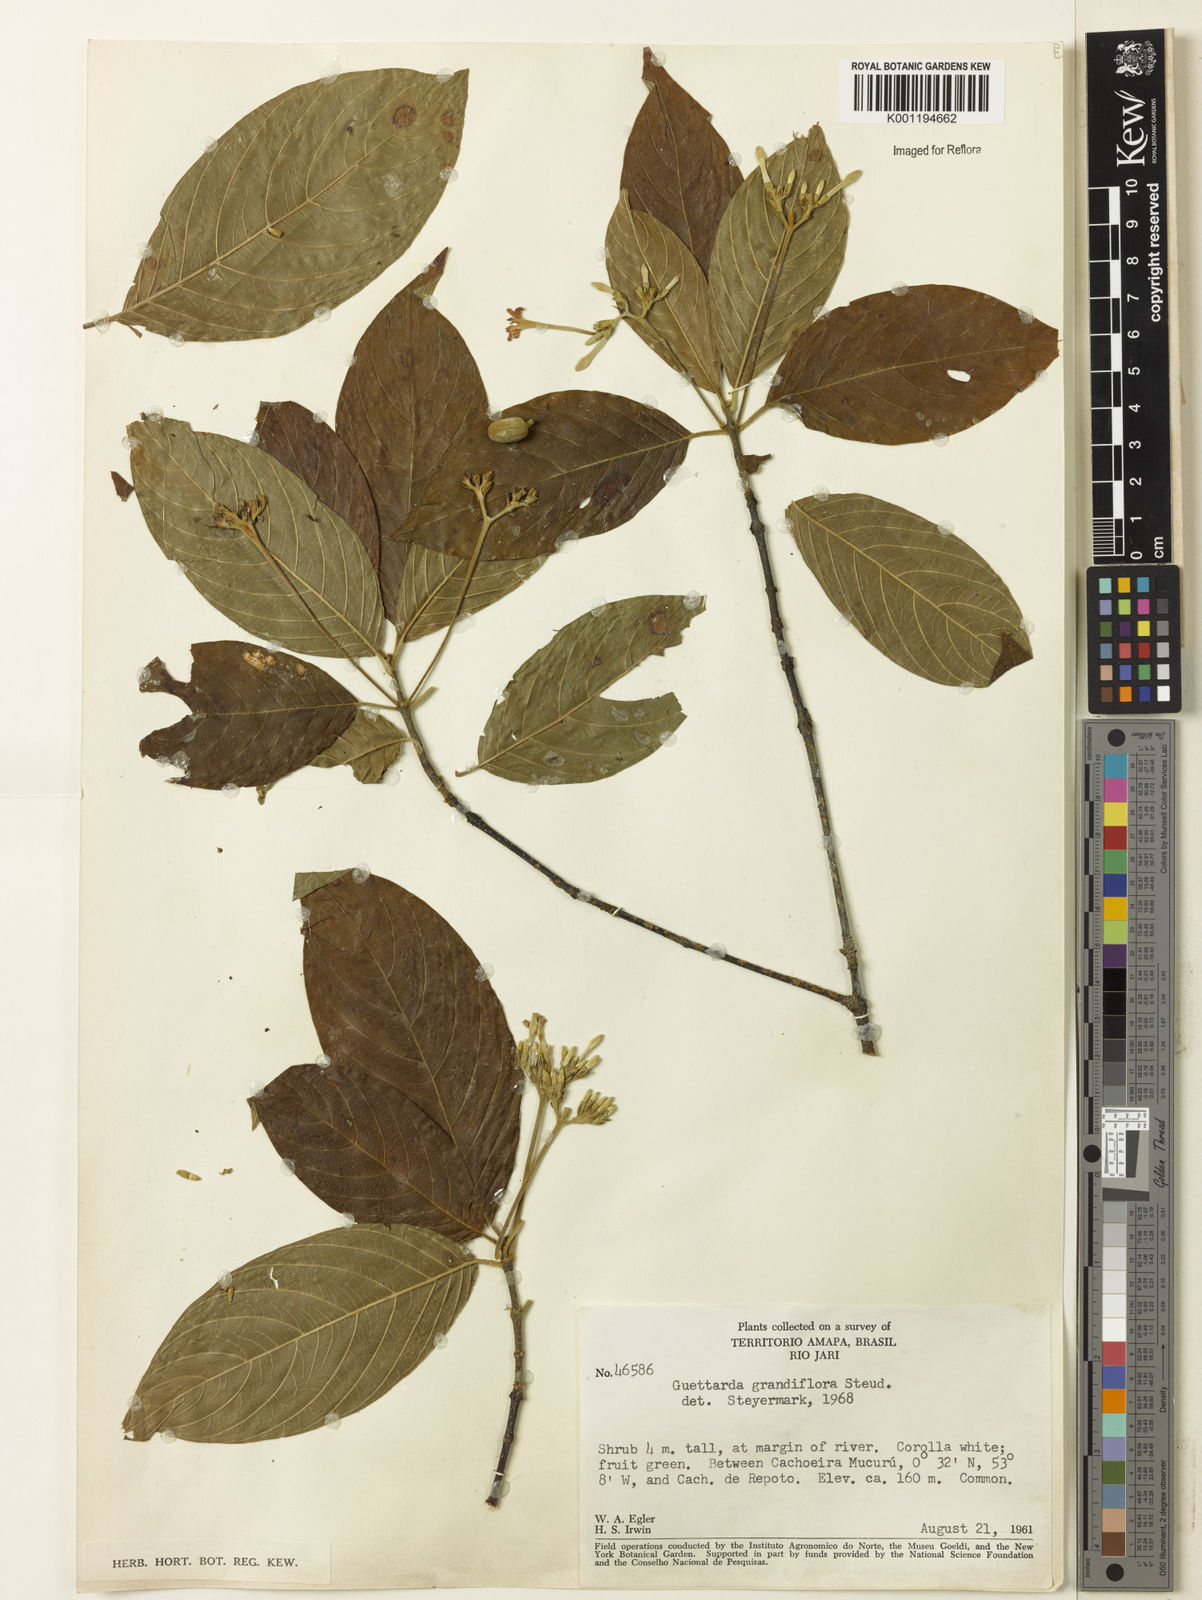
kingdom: Plantae
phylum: Tracheophyta
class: Magnoliopsida
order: Gentianales
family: Rubiaceae
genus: Guettarda
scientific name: Guettarda aromatica
